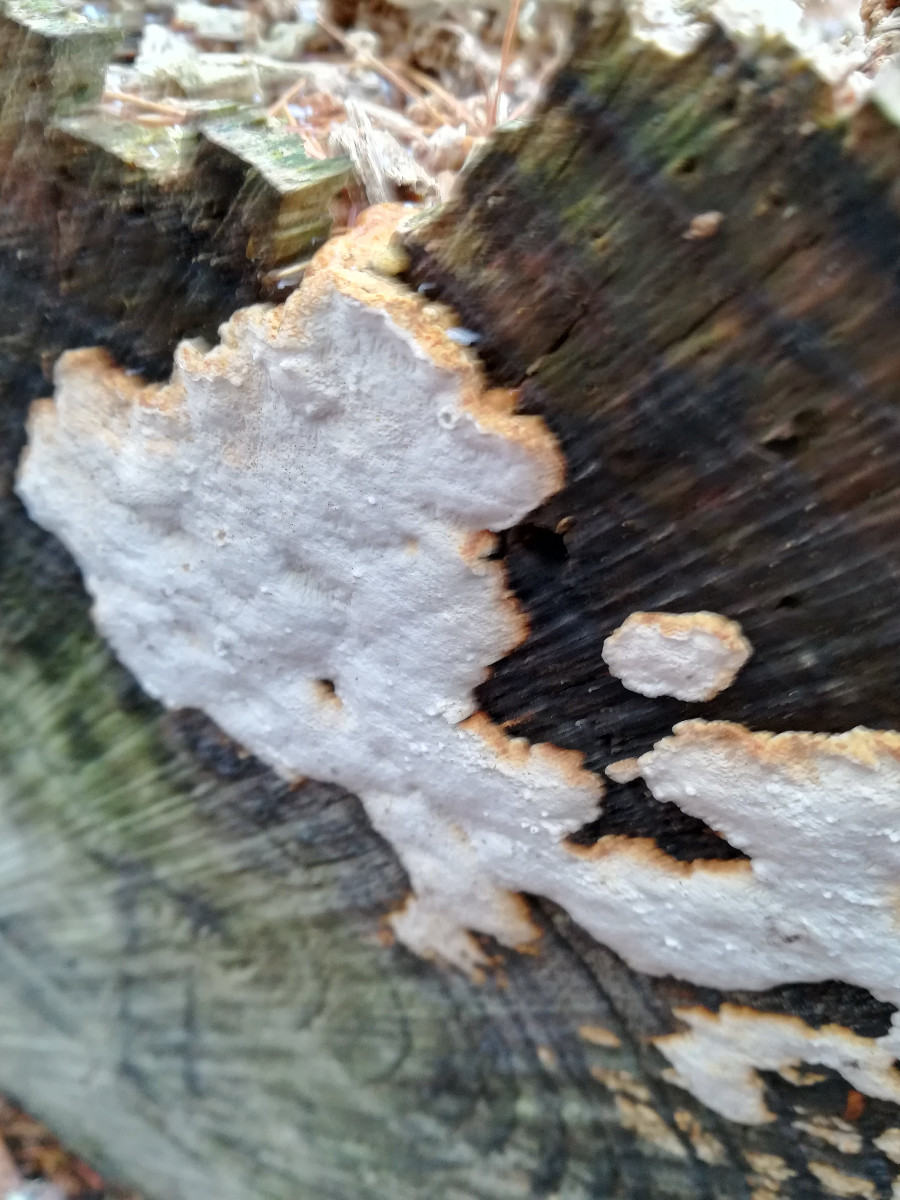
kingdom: Fungi
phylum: Basidiomycota
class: Agaricomycetes
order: Polyporales
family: Fomitopsidaceae
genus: Neoantrodia
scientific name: Neoantrodia serialis
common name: række-sejporesvamp
